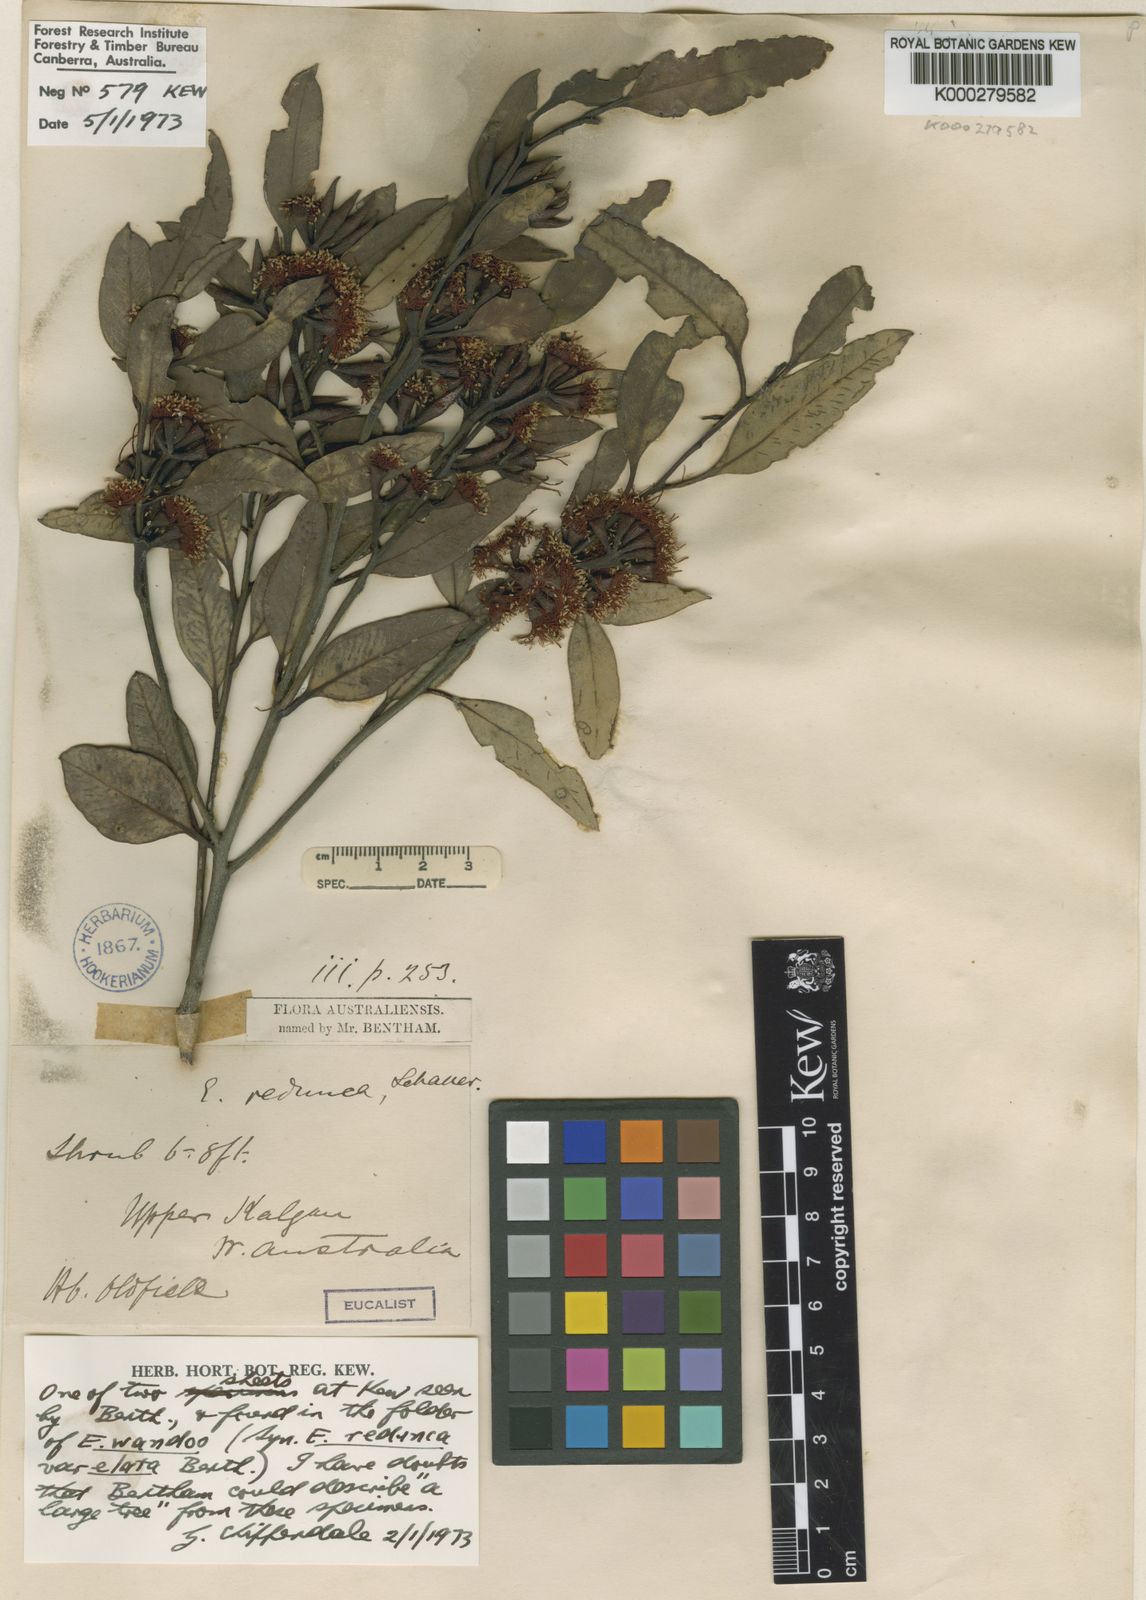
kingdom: Plantae
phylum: Tracheophyta
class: Magnoliopsida
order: Myrtales
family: Myrtaceae
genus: Eucalyptus
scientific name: Eucalyptus redunca
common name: Black-marlock
